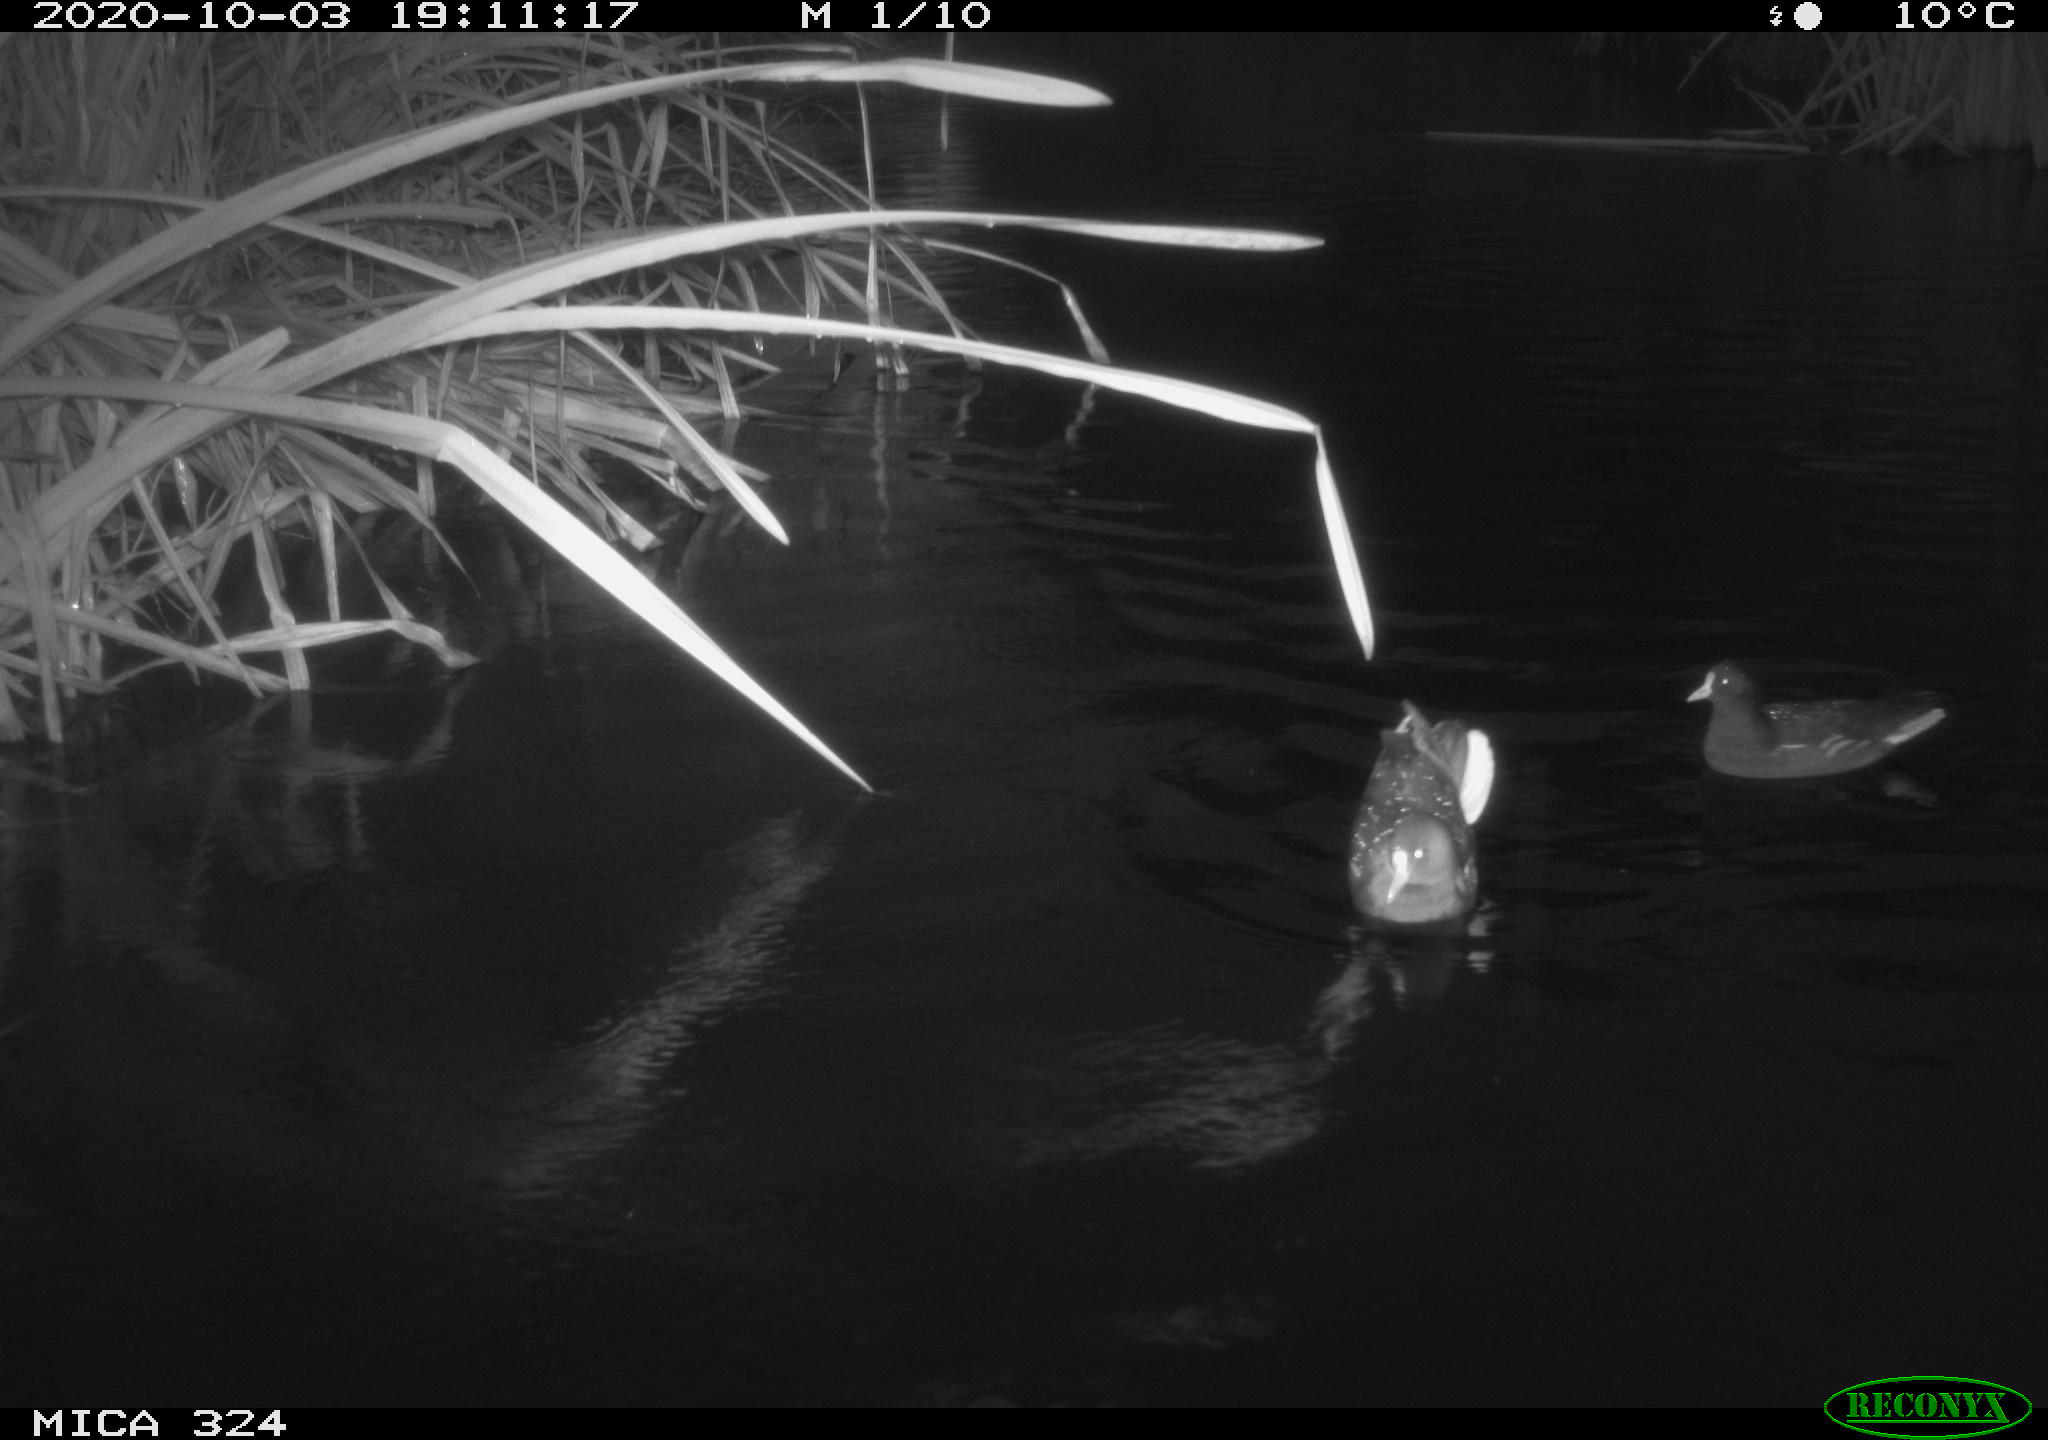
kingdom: Animalia
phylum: Chordata
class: Aves
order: Gruiformes
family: Rallidae
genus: Gallinula
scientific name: Gallinula chloropus
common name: Common moorhen
